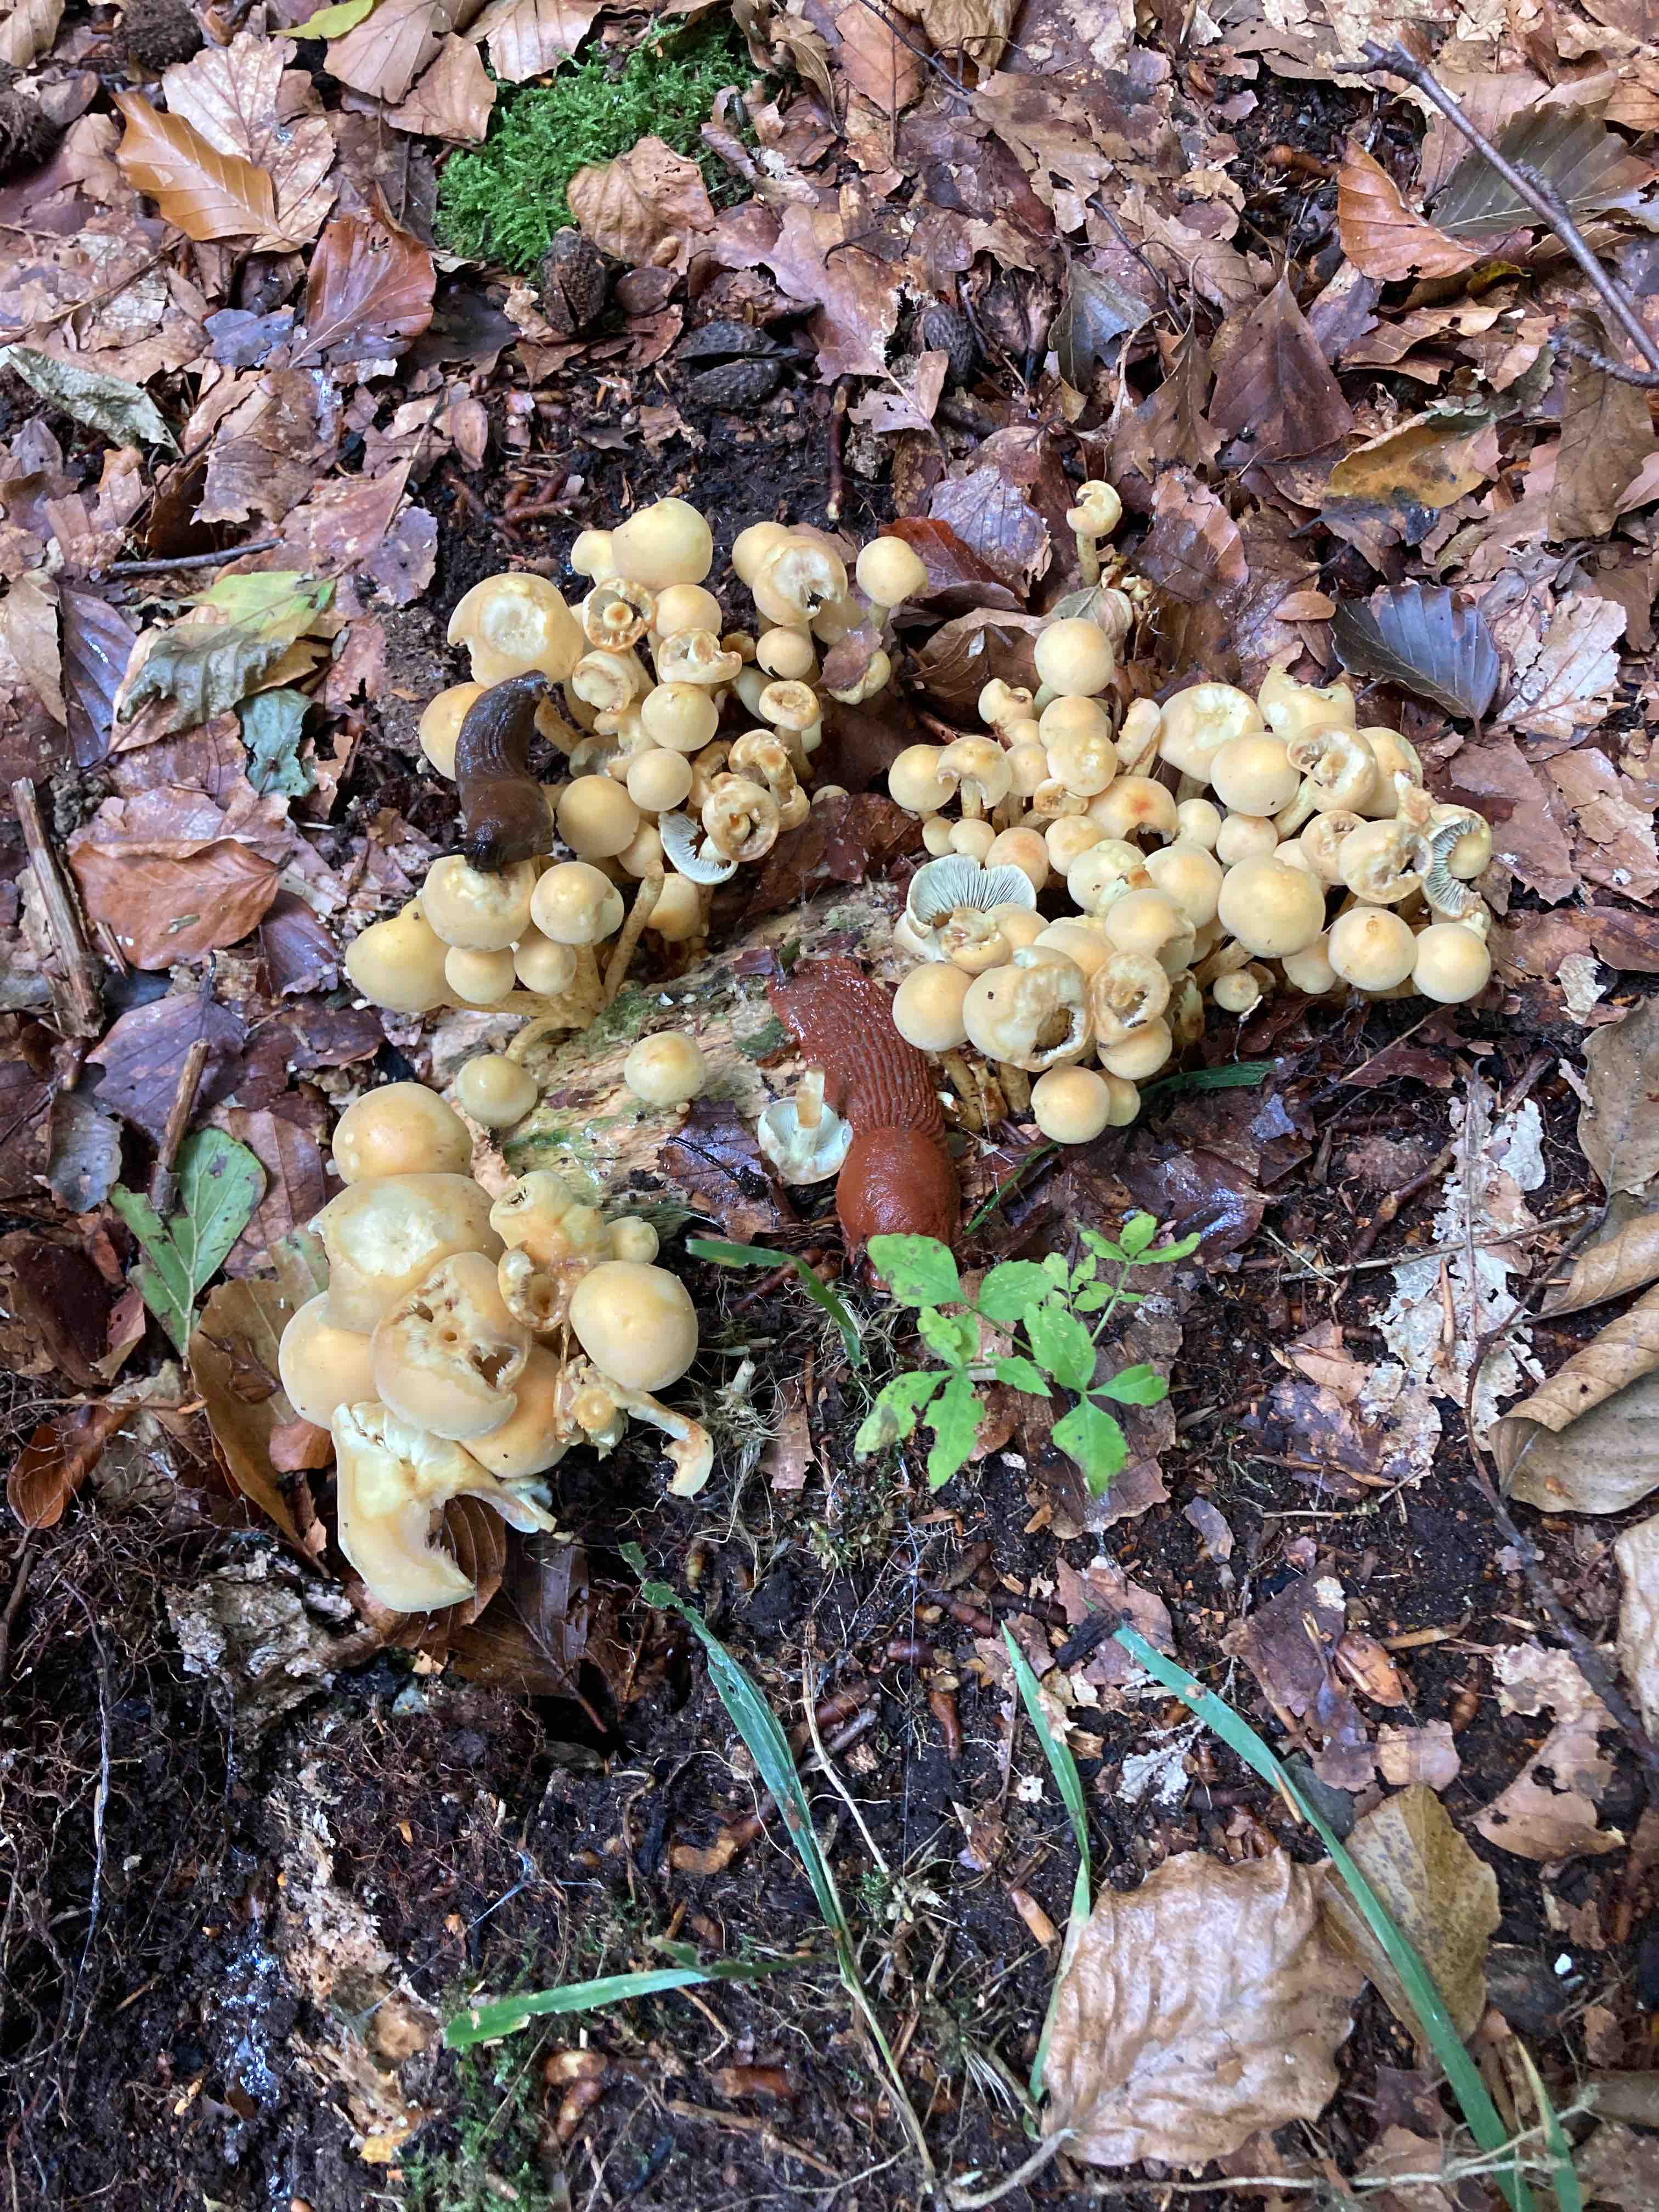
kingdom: Fungi
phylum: Basidiomycota
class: Agaricomycetes
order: Agaricales
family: Strophariaceae
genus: Hypholoma
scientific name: Hypholoma fasciculare
